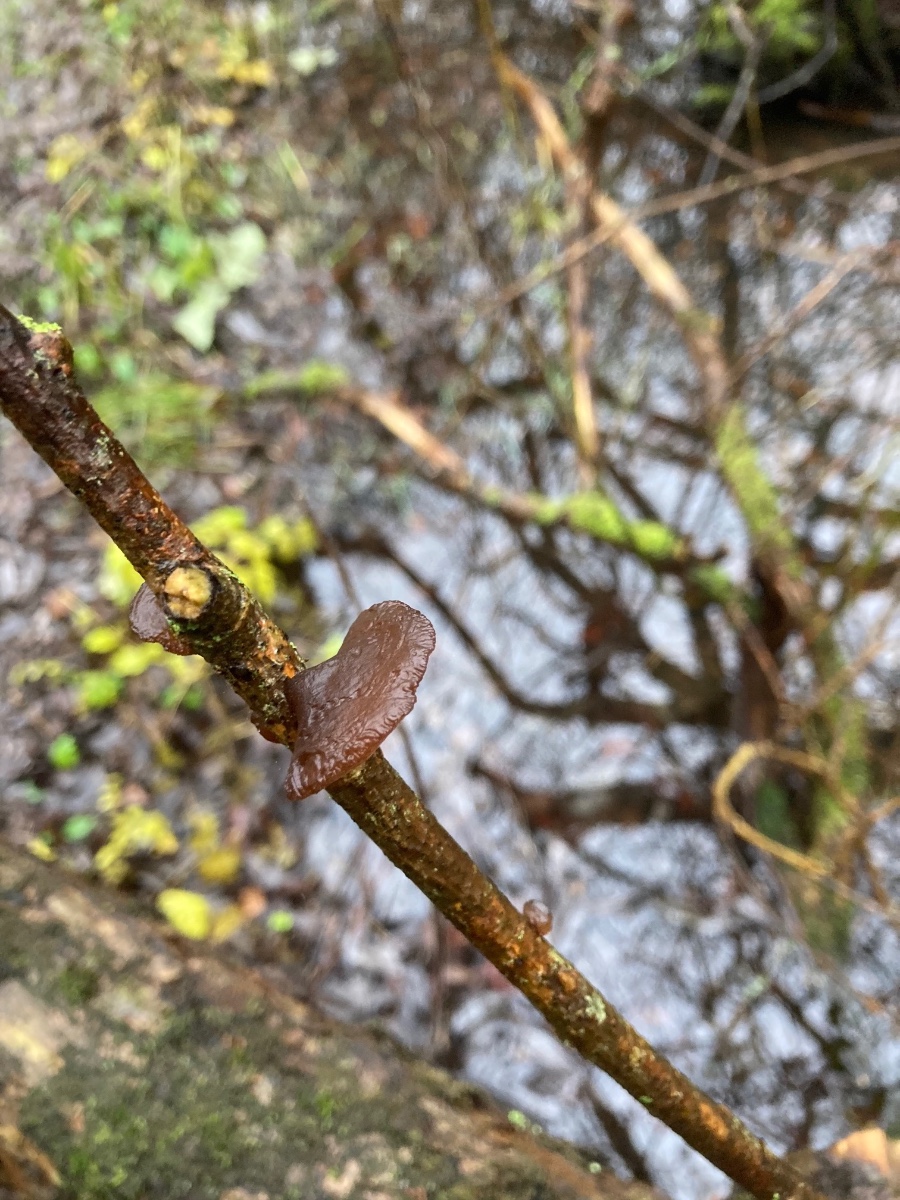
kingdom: Fungi
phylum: Basidiomycota
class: Agaricomycetes
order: Auriculariales
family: Auriculariaceae
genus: Exidia
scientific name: Exidia recisa
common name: pile-bævretop
